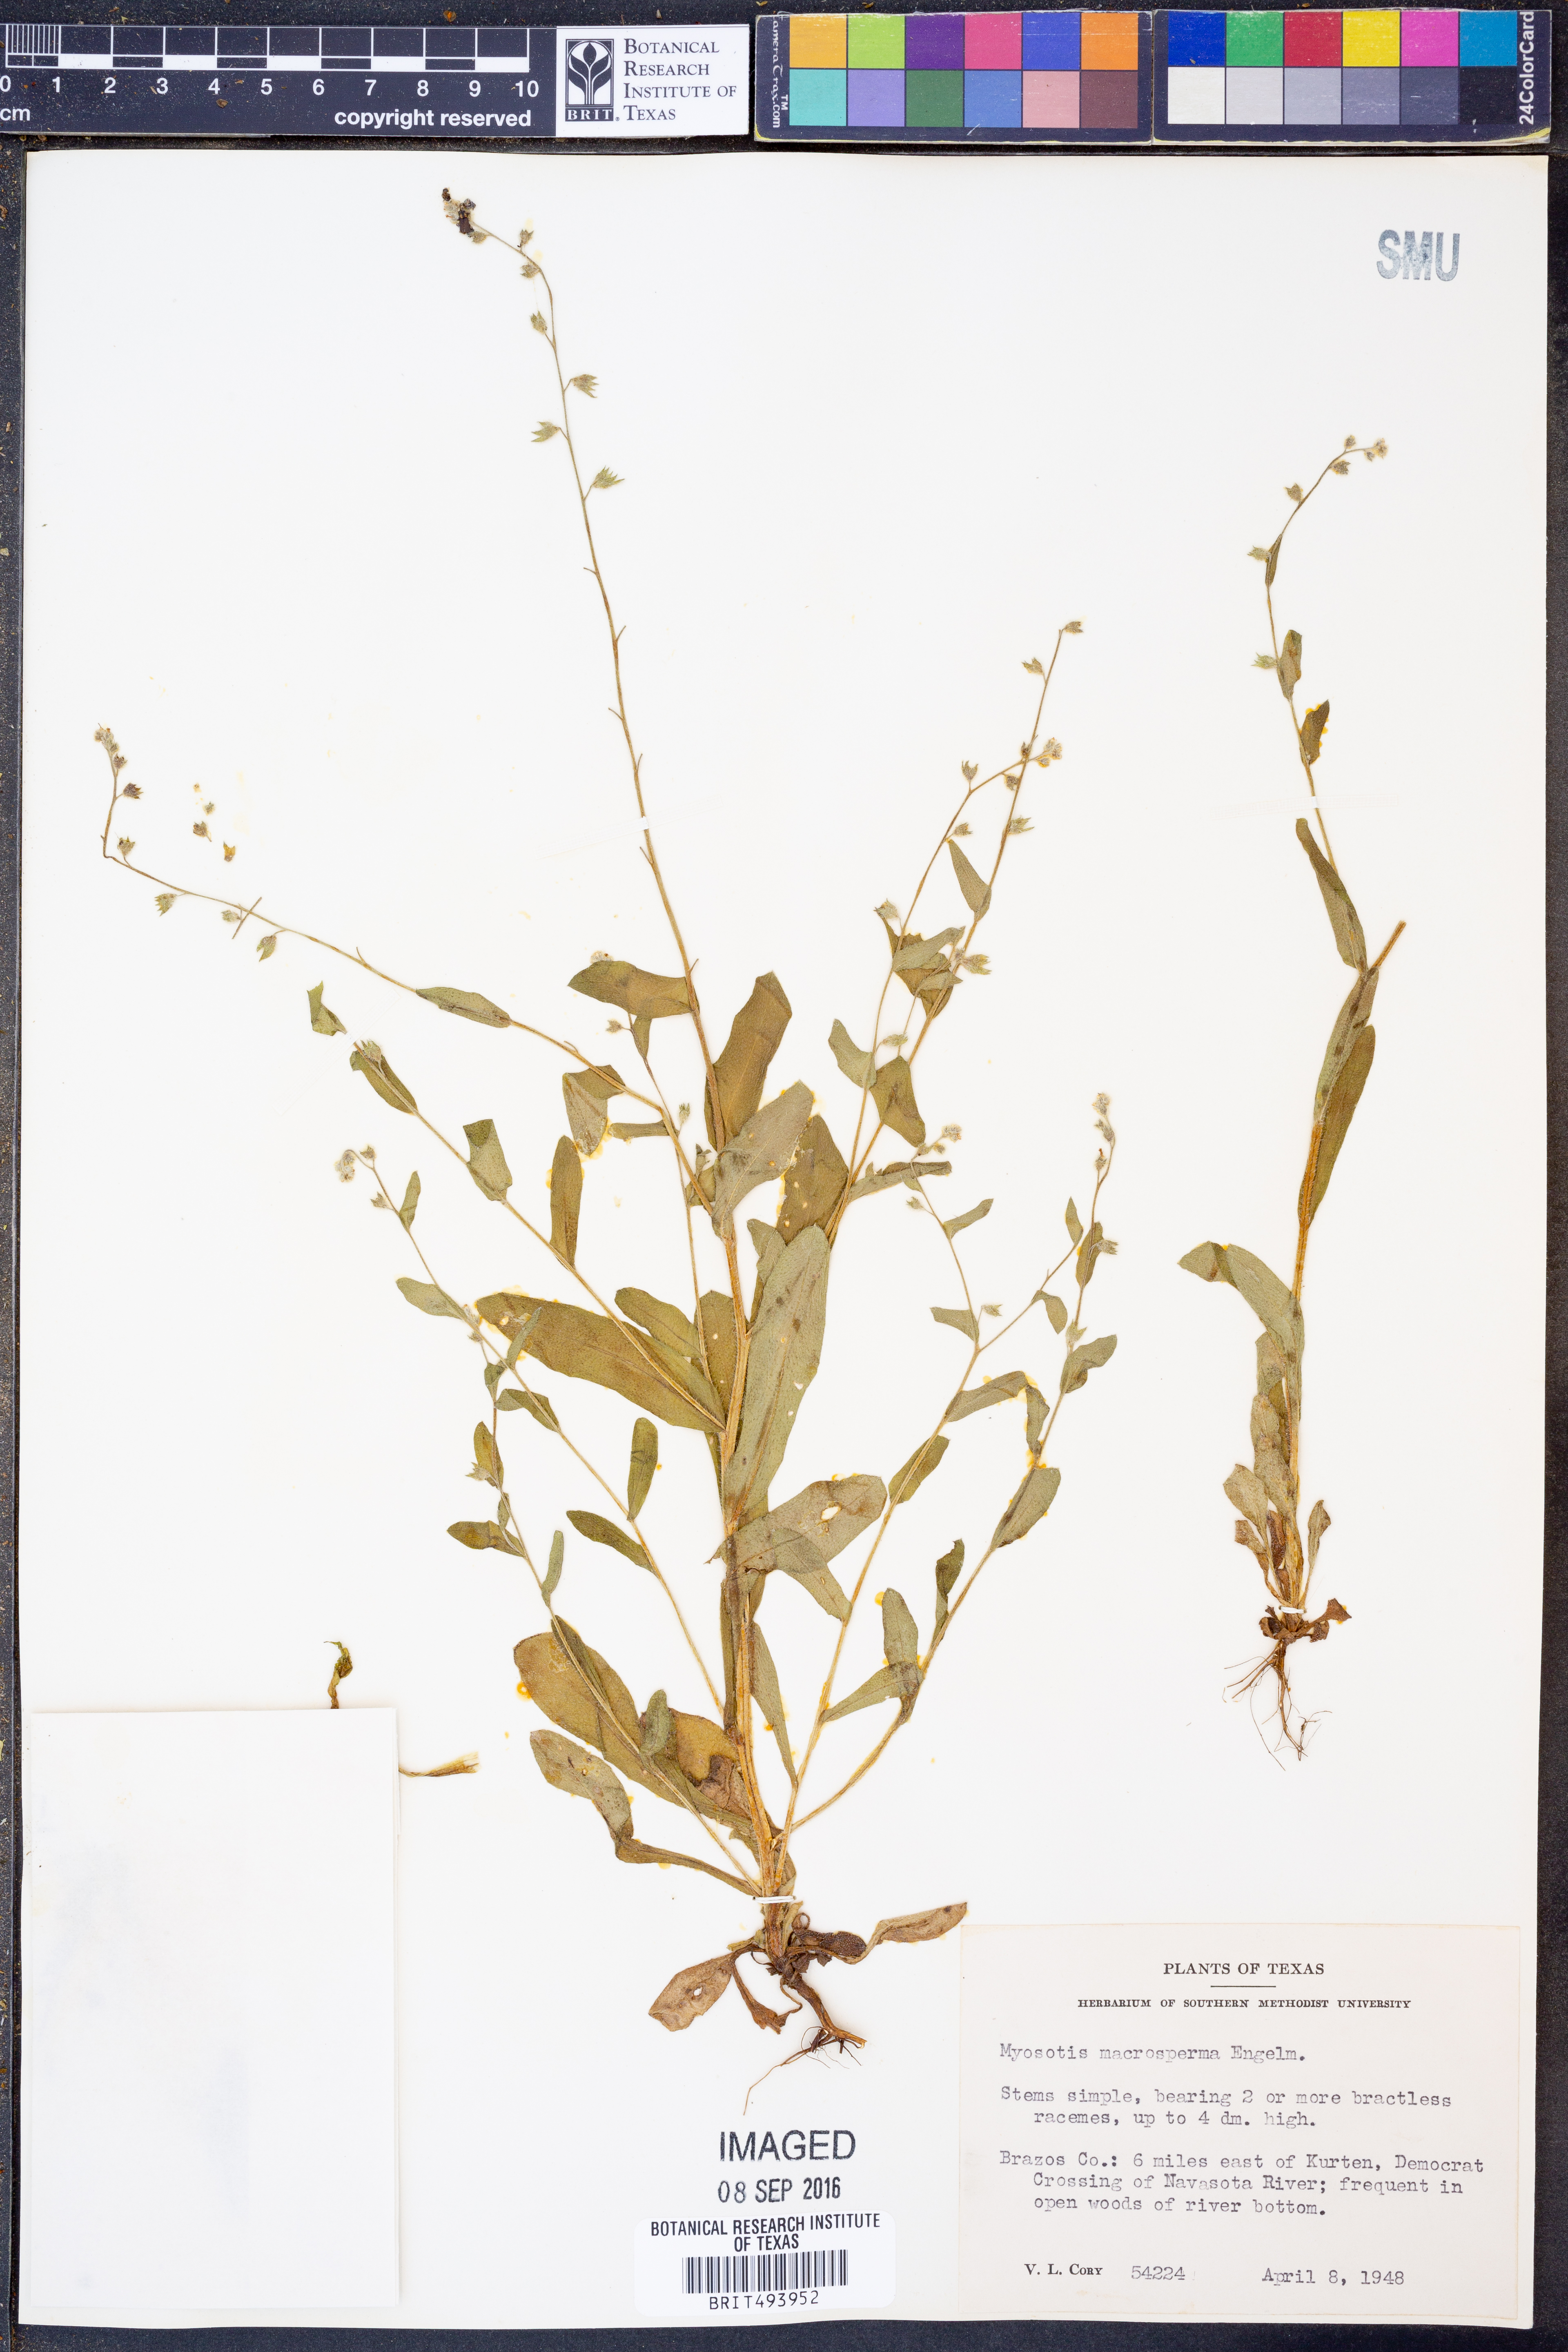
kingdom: Plantae
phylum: Tracheophyta
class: Magnoliopsida
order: Boraginales
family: Boraginaceae
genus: Myosotis
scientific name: Myosotis macrosperma
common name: Large-seed forget-me-not
